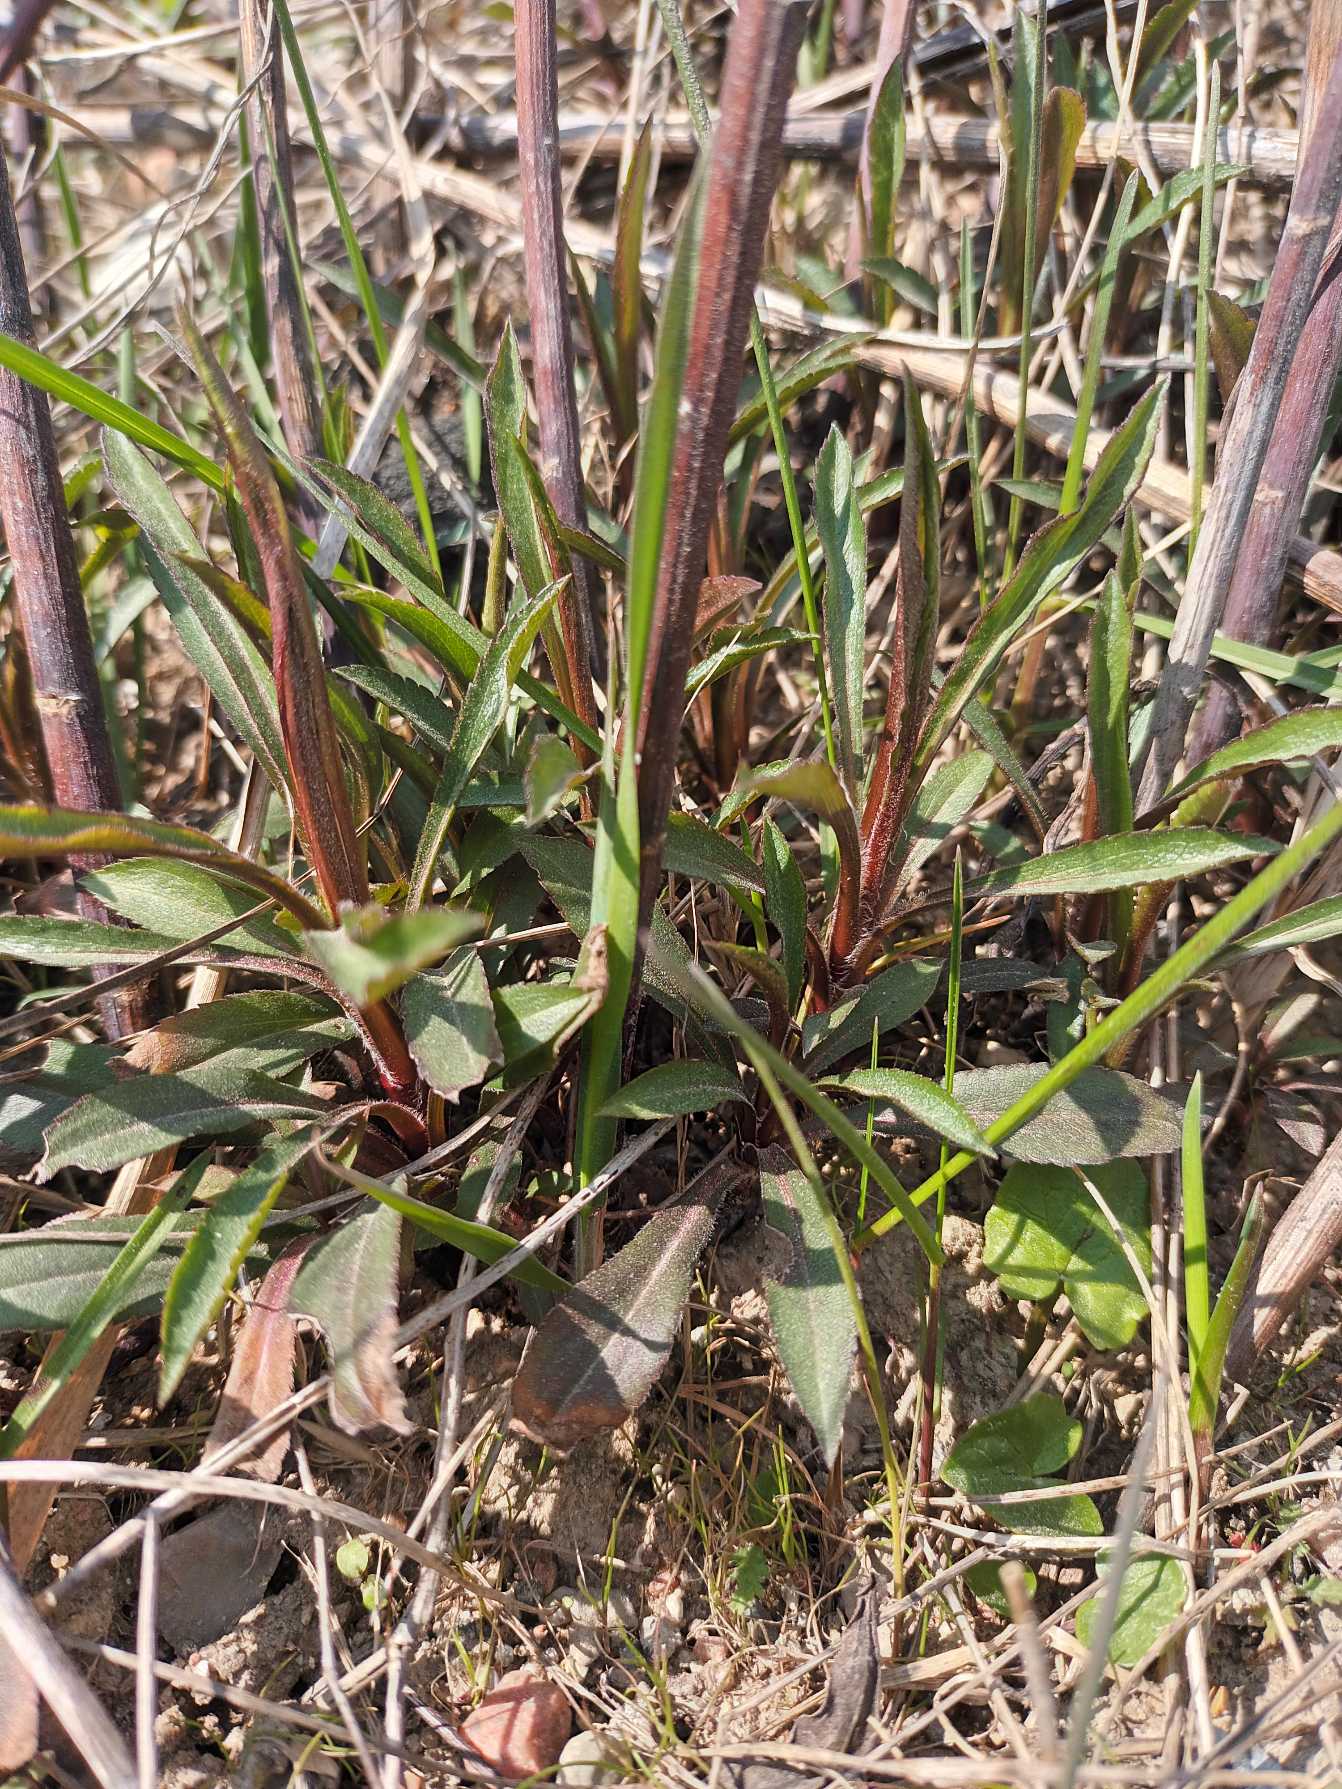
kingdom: Plantae
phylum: Tracheophyta
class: Magnoliopsida
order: Asterales
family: Asteraceae
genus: Solidago
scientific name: Solidago gigantea
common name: Sildig gyldenris
